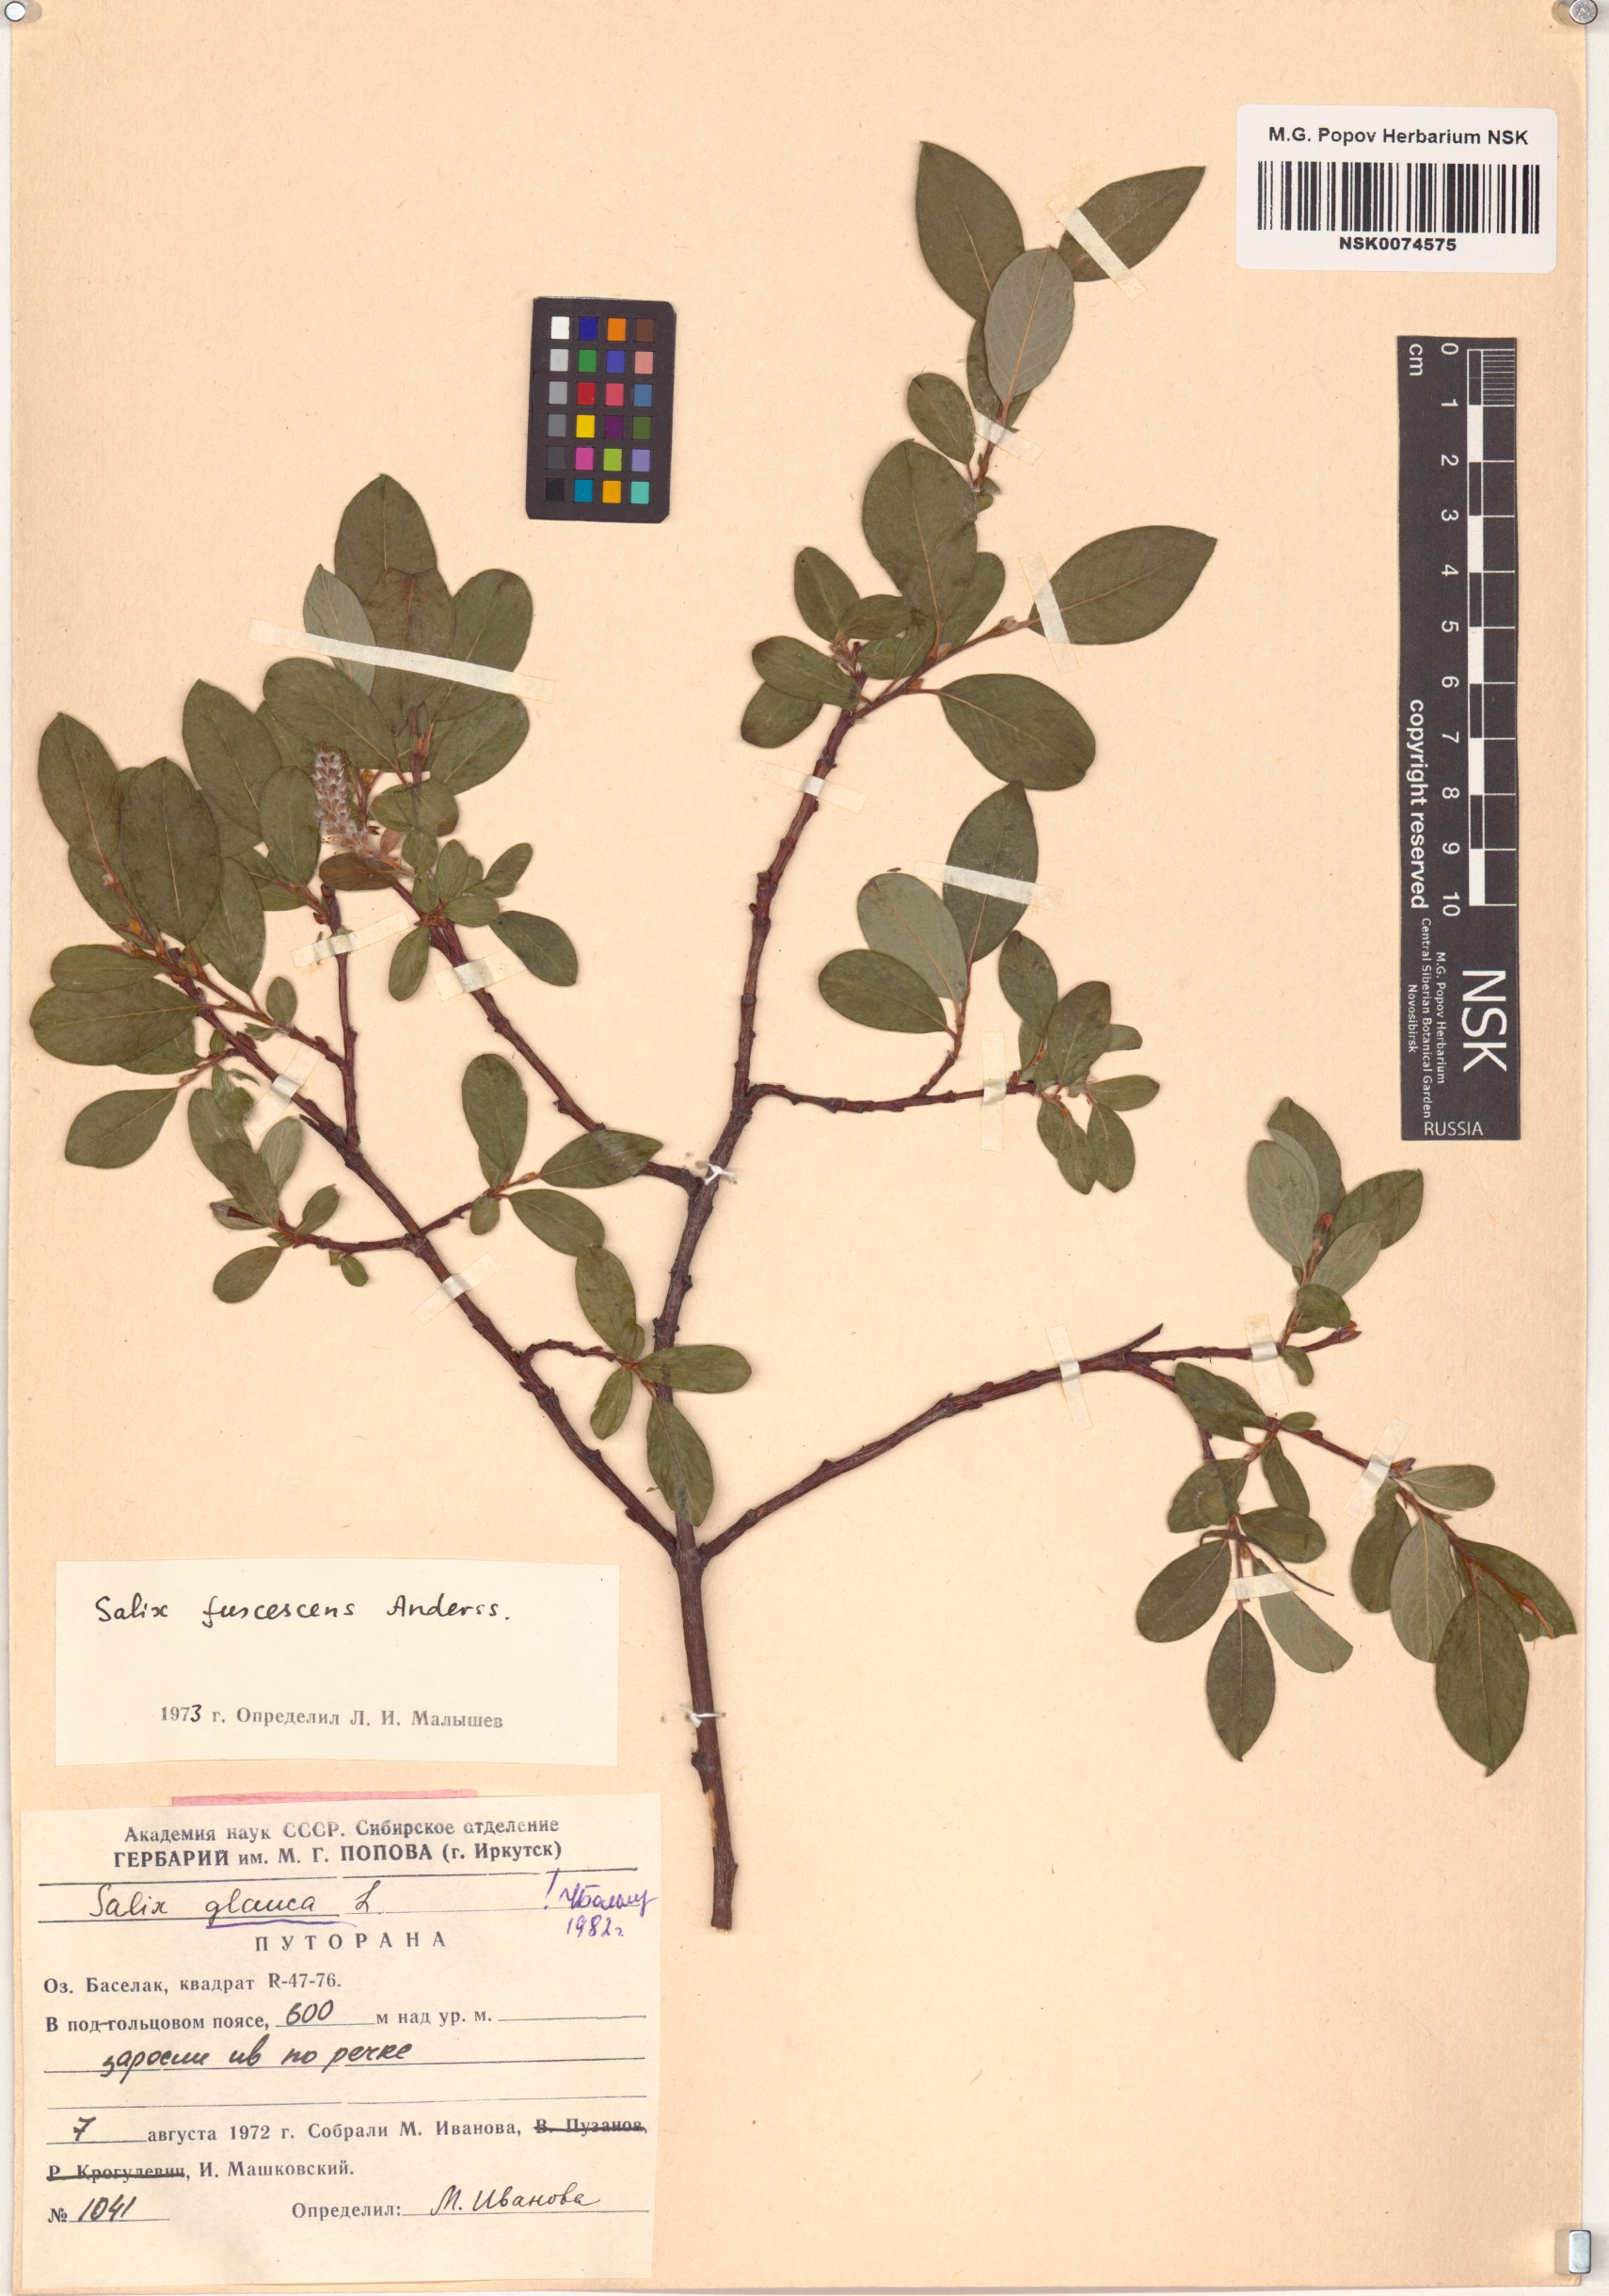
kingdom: Plantae
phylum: Tracheophyta
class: Magnoliopsida
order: Malpighiales
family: Salicaceae
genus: Salix
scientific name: Salix glauca
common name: Glaucous willow
